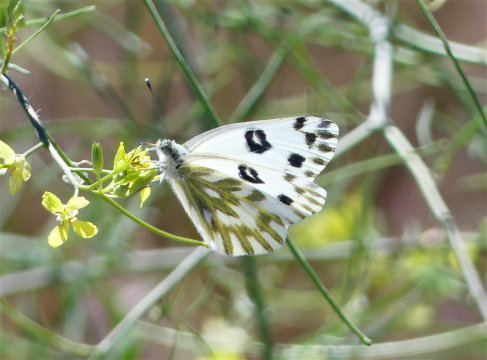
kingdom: Animalia
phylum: Arthropoda
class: Insecta
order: Lepidoptera
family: Pieridae
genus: Pontia
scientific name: Pontia beckerii
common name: Becker's White
